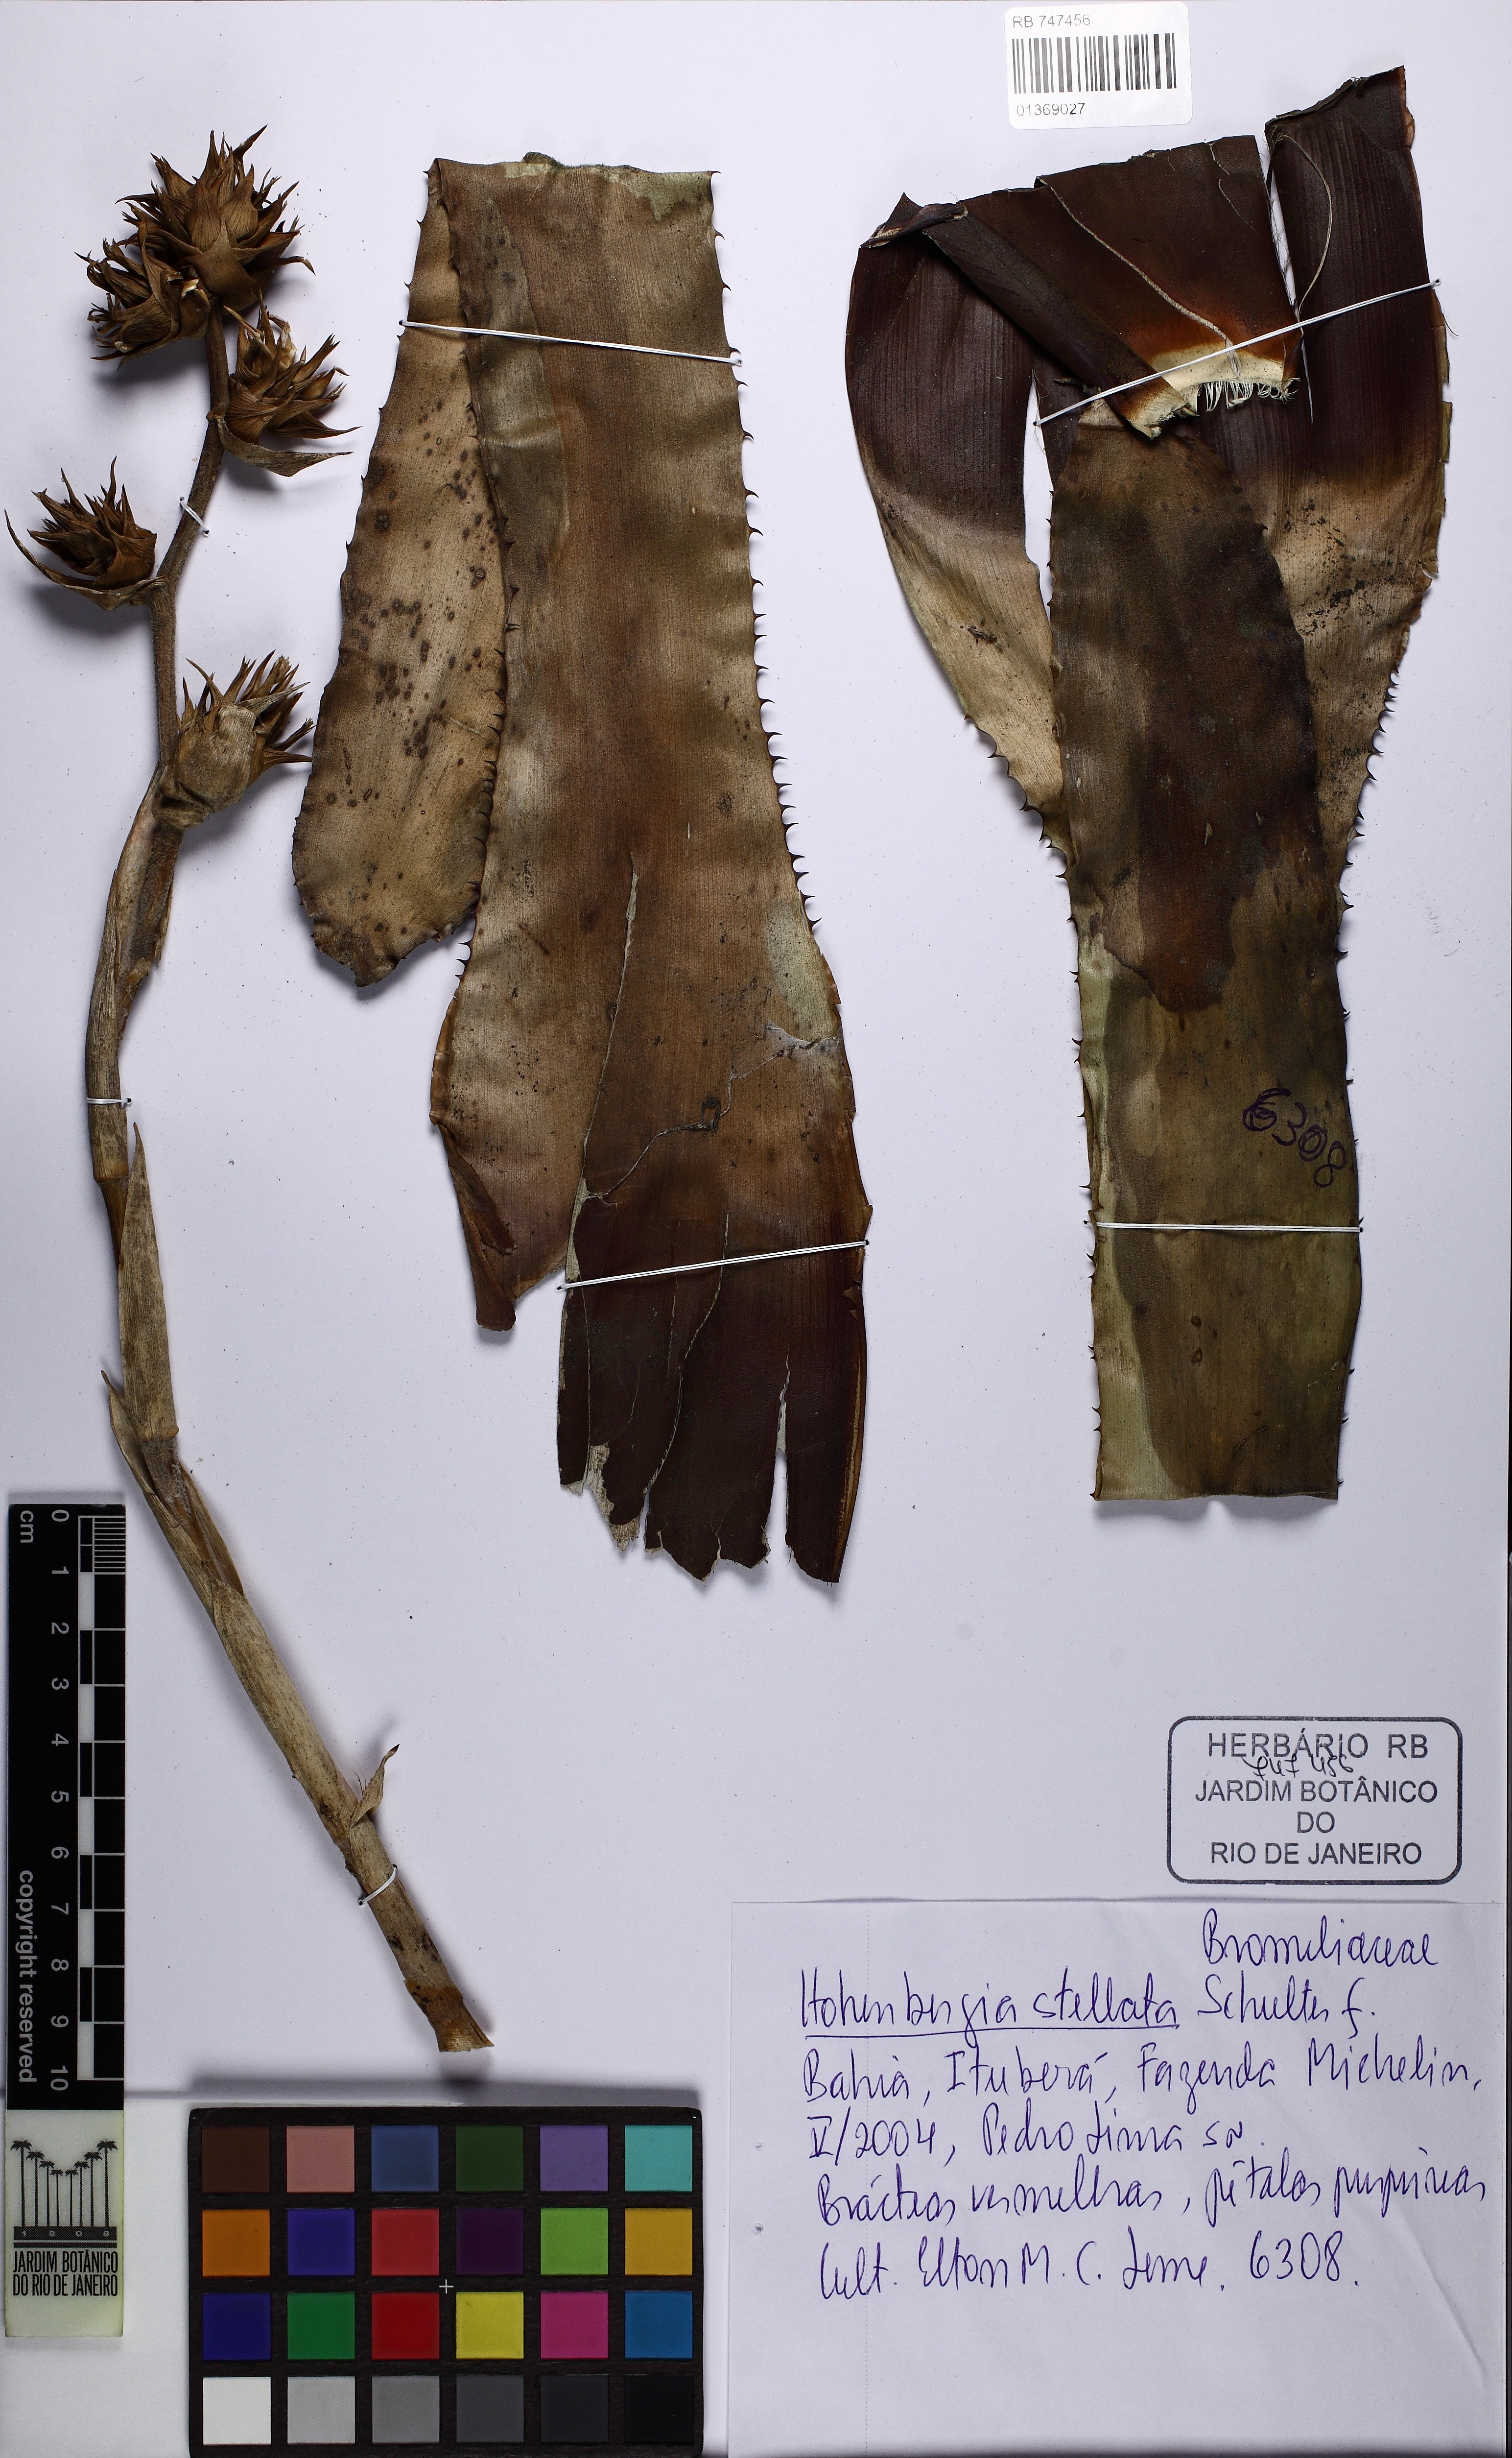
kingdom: Plantae
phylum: Tracheophyta
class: Liliopsida
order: Poales
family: Bromeliaceae
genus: Hohenbergia
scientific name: Hohenbergia stellata
